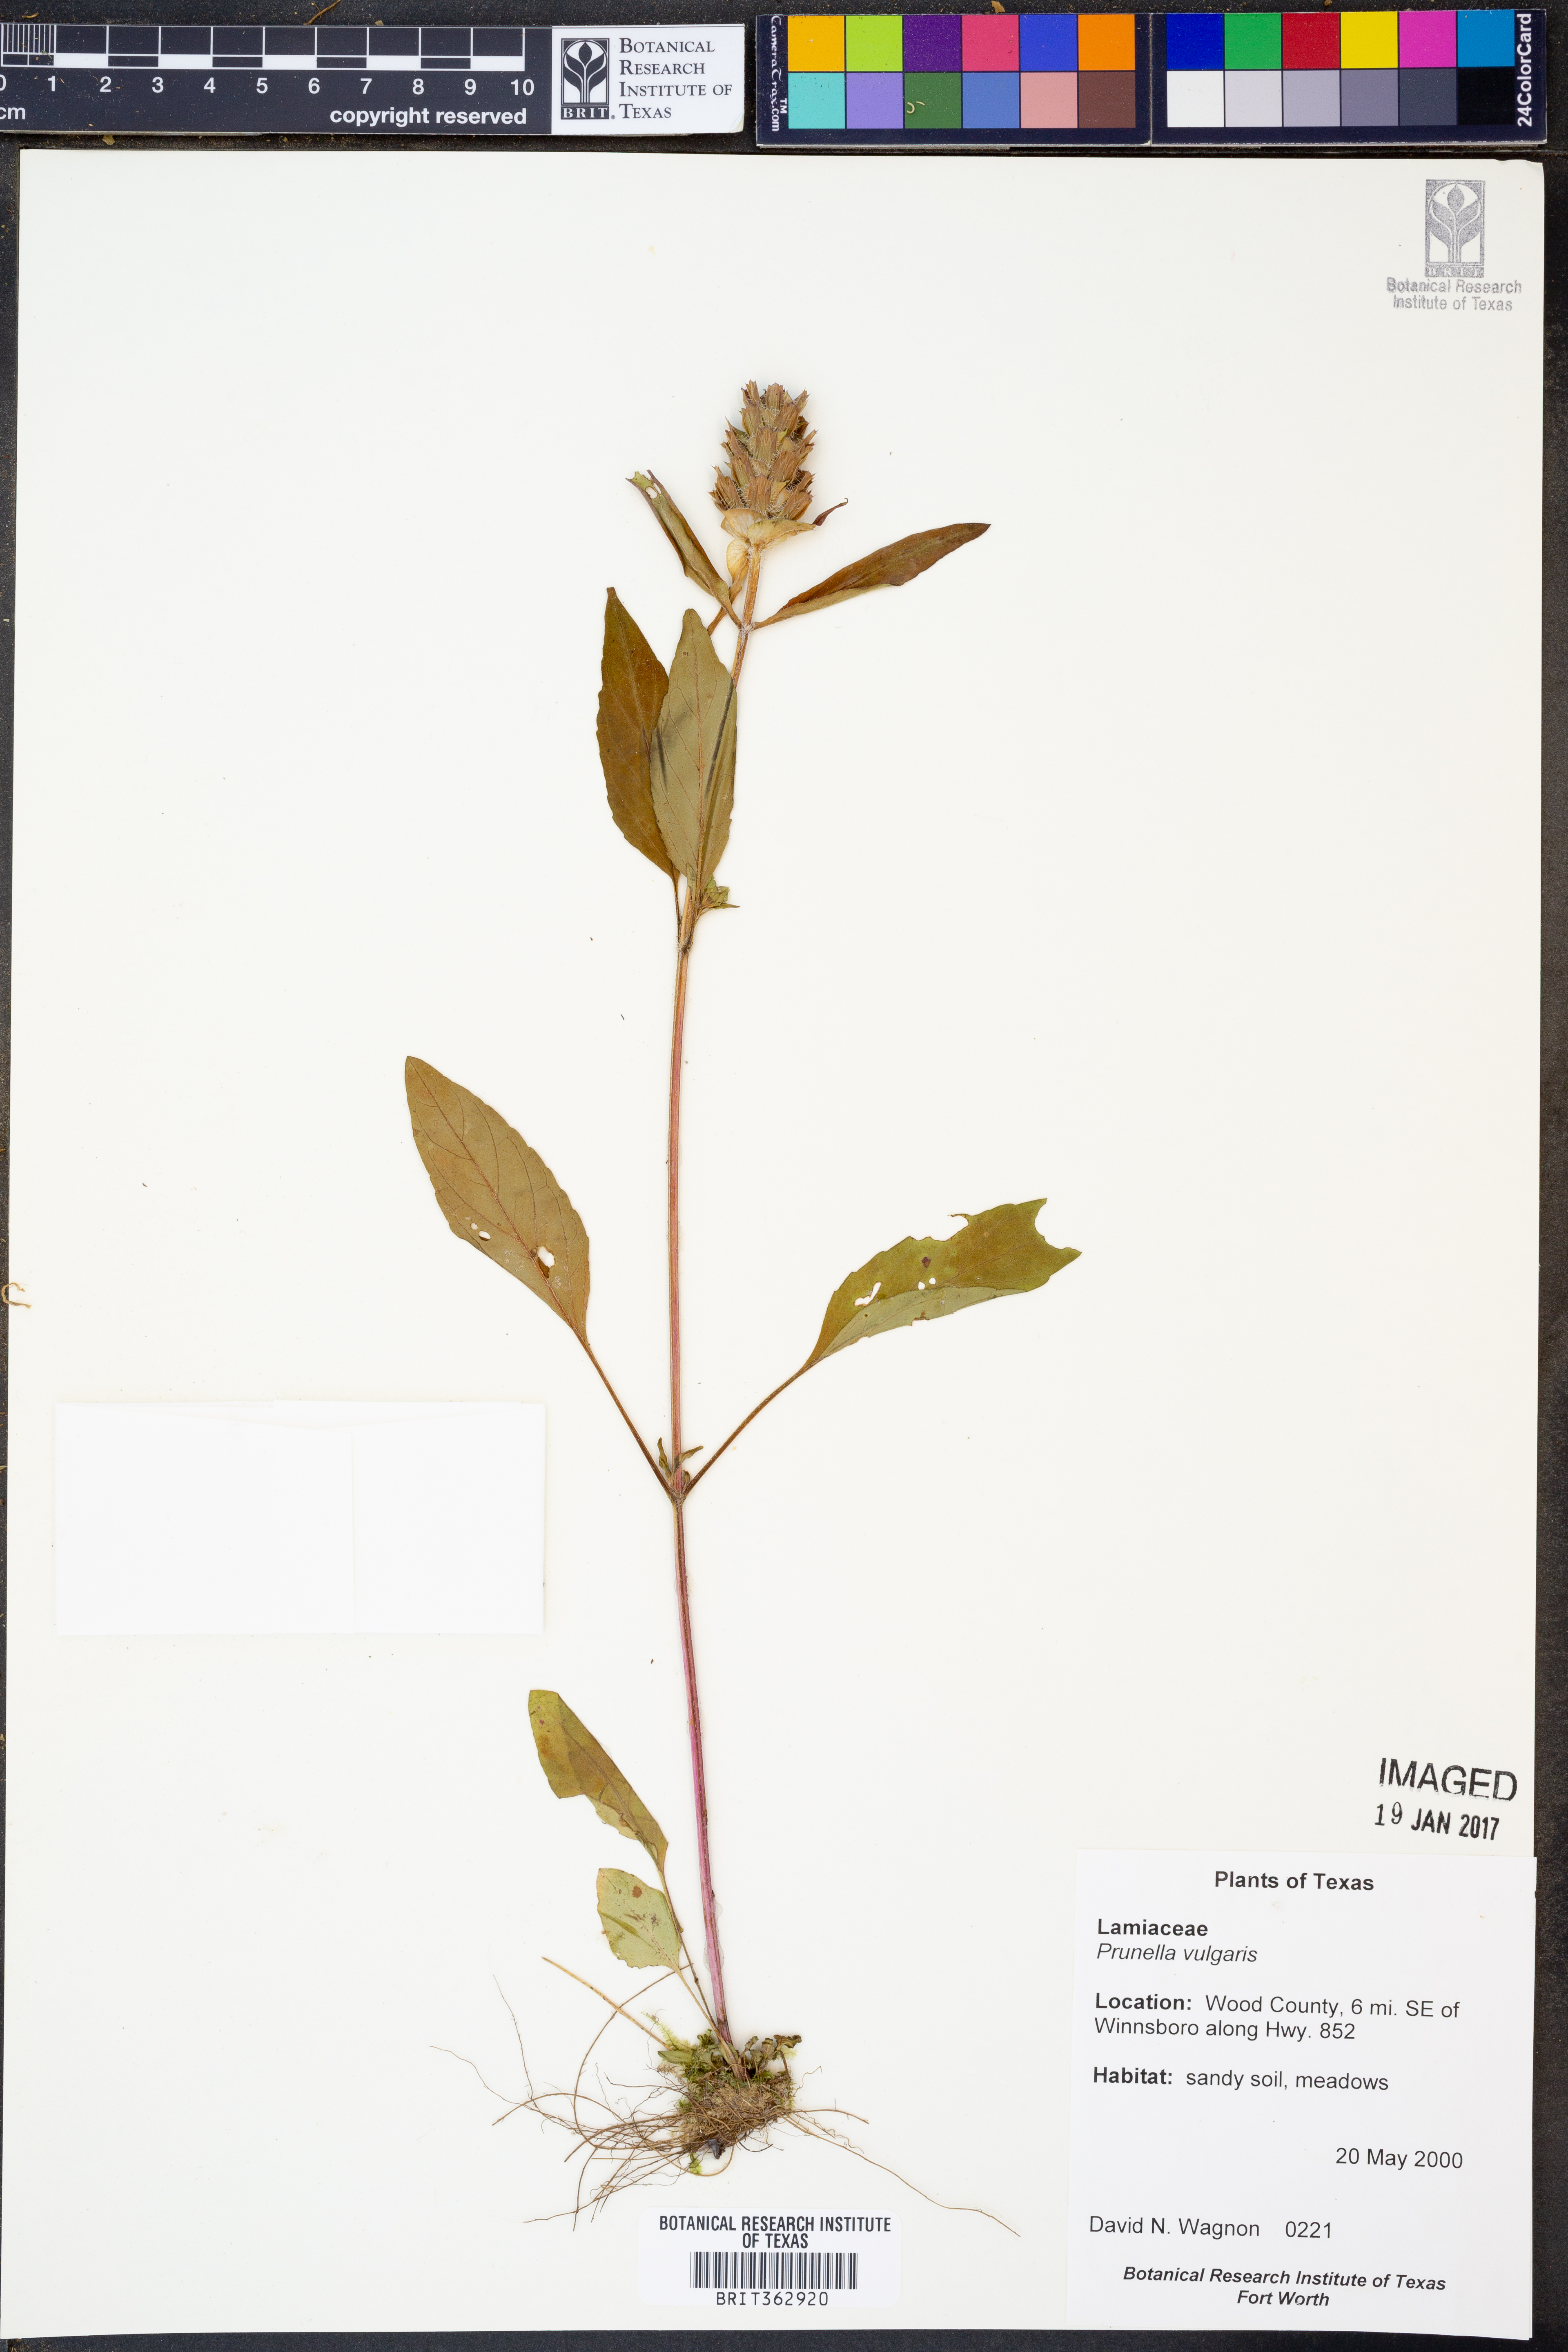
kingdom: Plantae
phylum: Tracheophyta
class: Magnoliopsida
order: Lamiales
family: Lamiaceae
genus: Prunella
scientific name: Prunella vulgaris
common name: Heal-all
